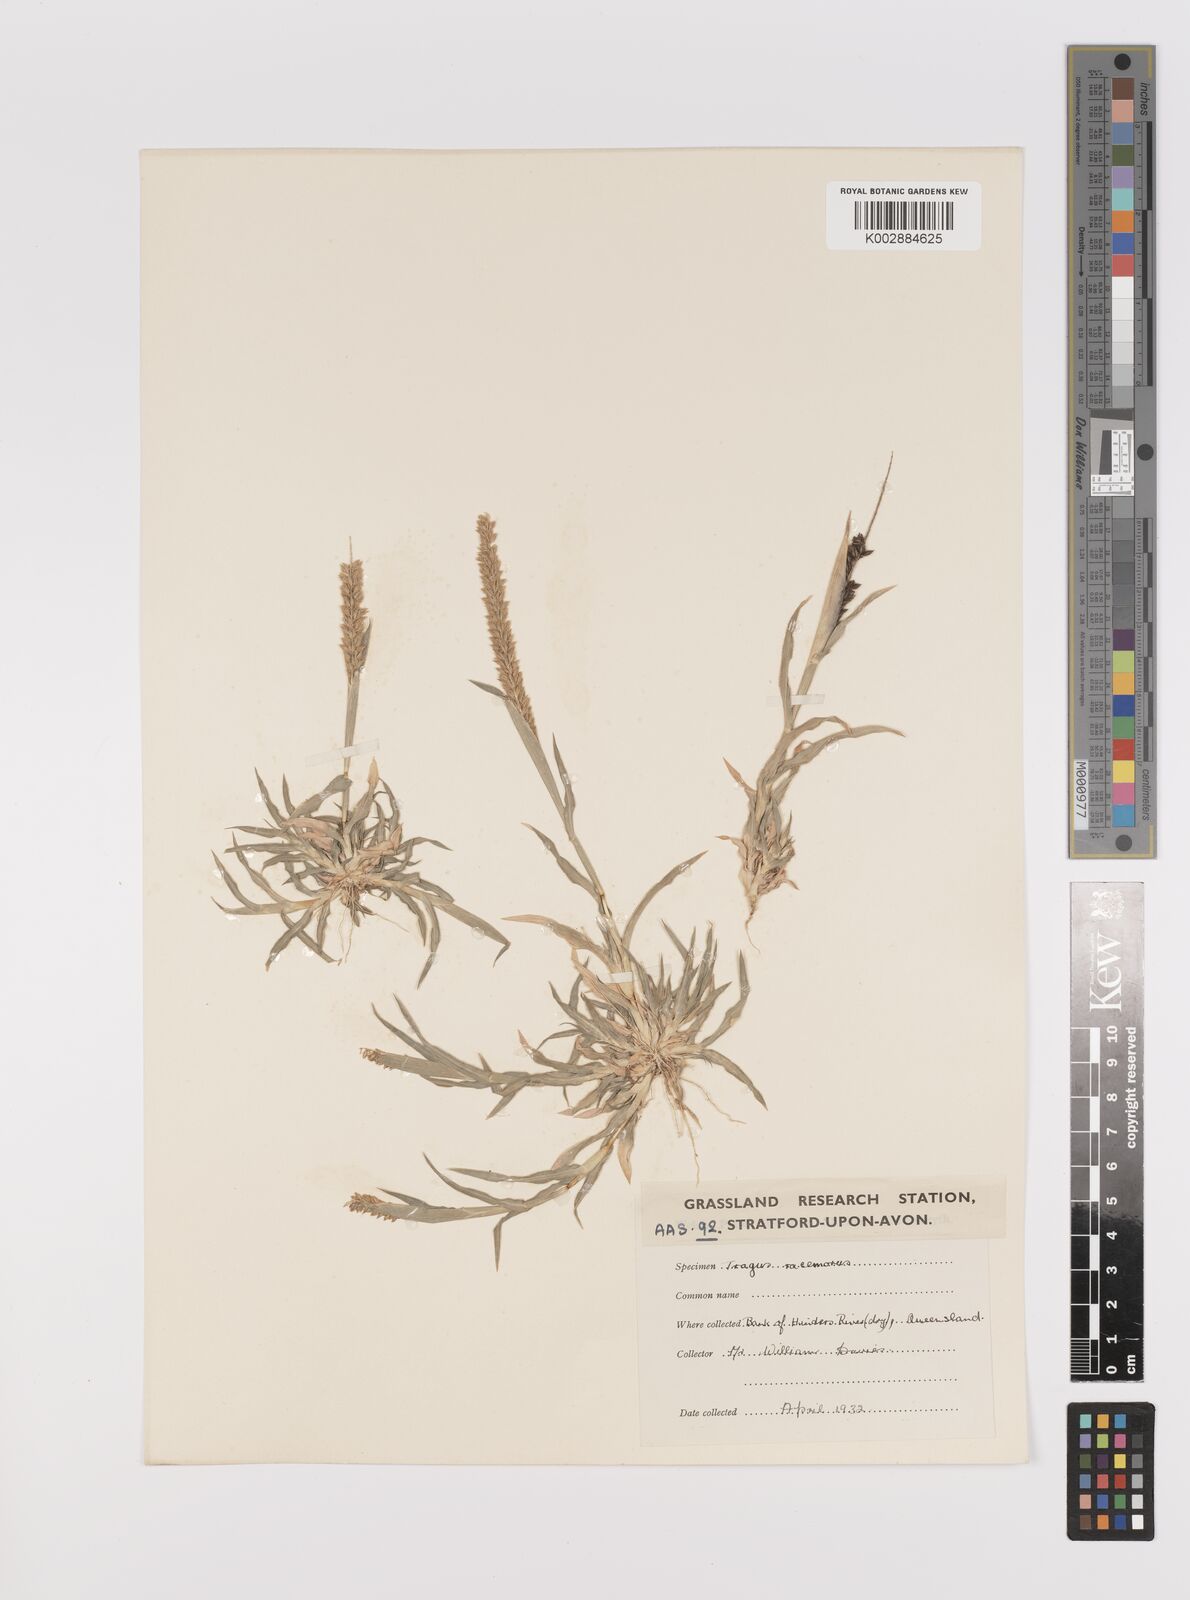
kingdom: Plantae
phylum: Tracheophyta
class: Liliopsida
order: Poales
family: Poaceae
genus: Tragus
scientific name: Tragus australianus
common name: Australian bur-grass
